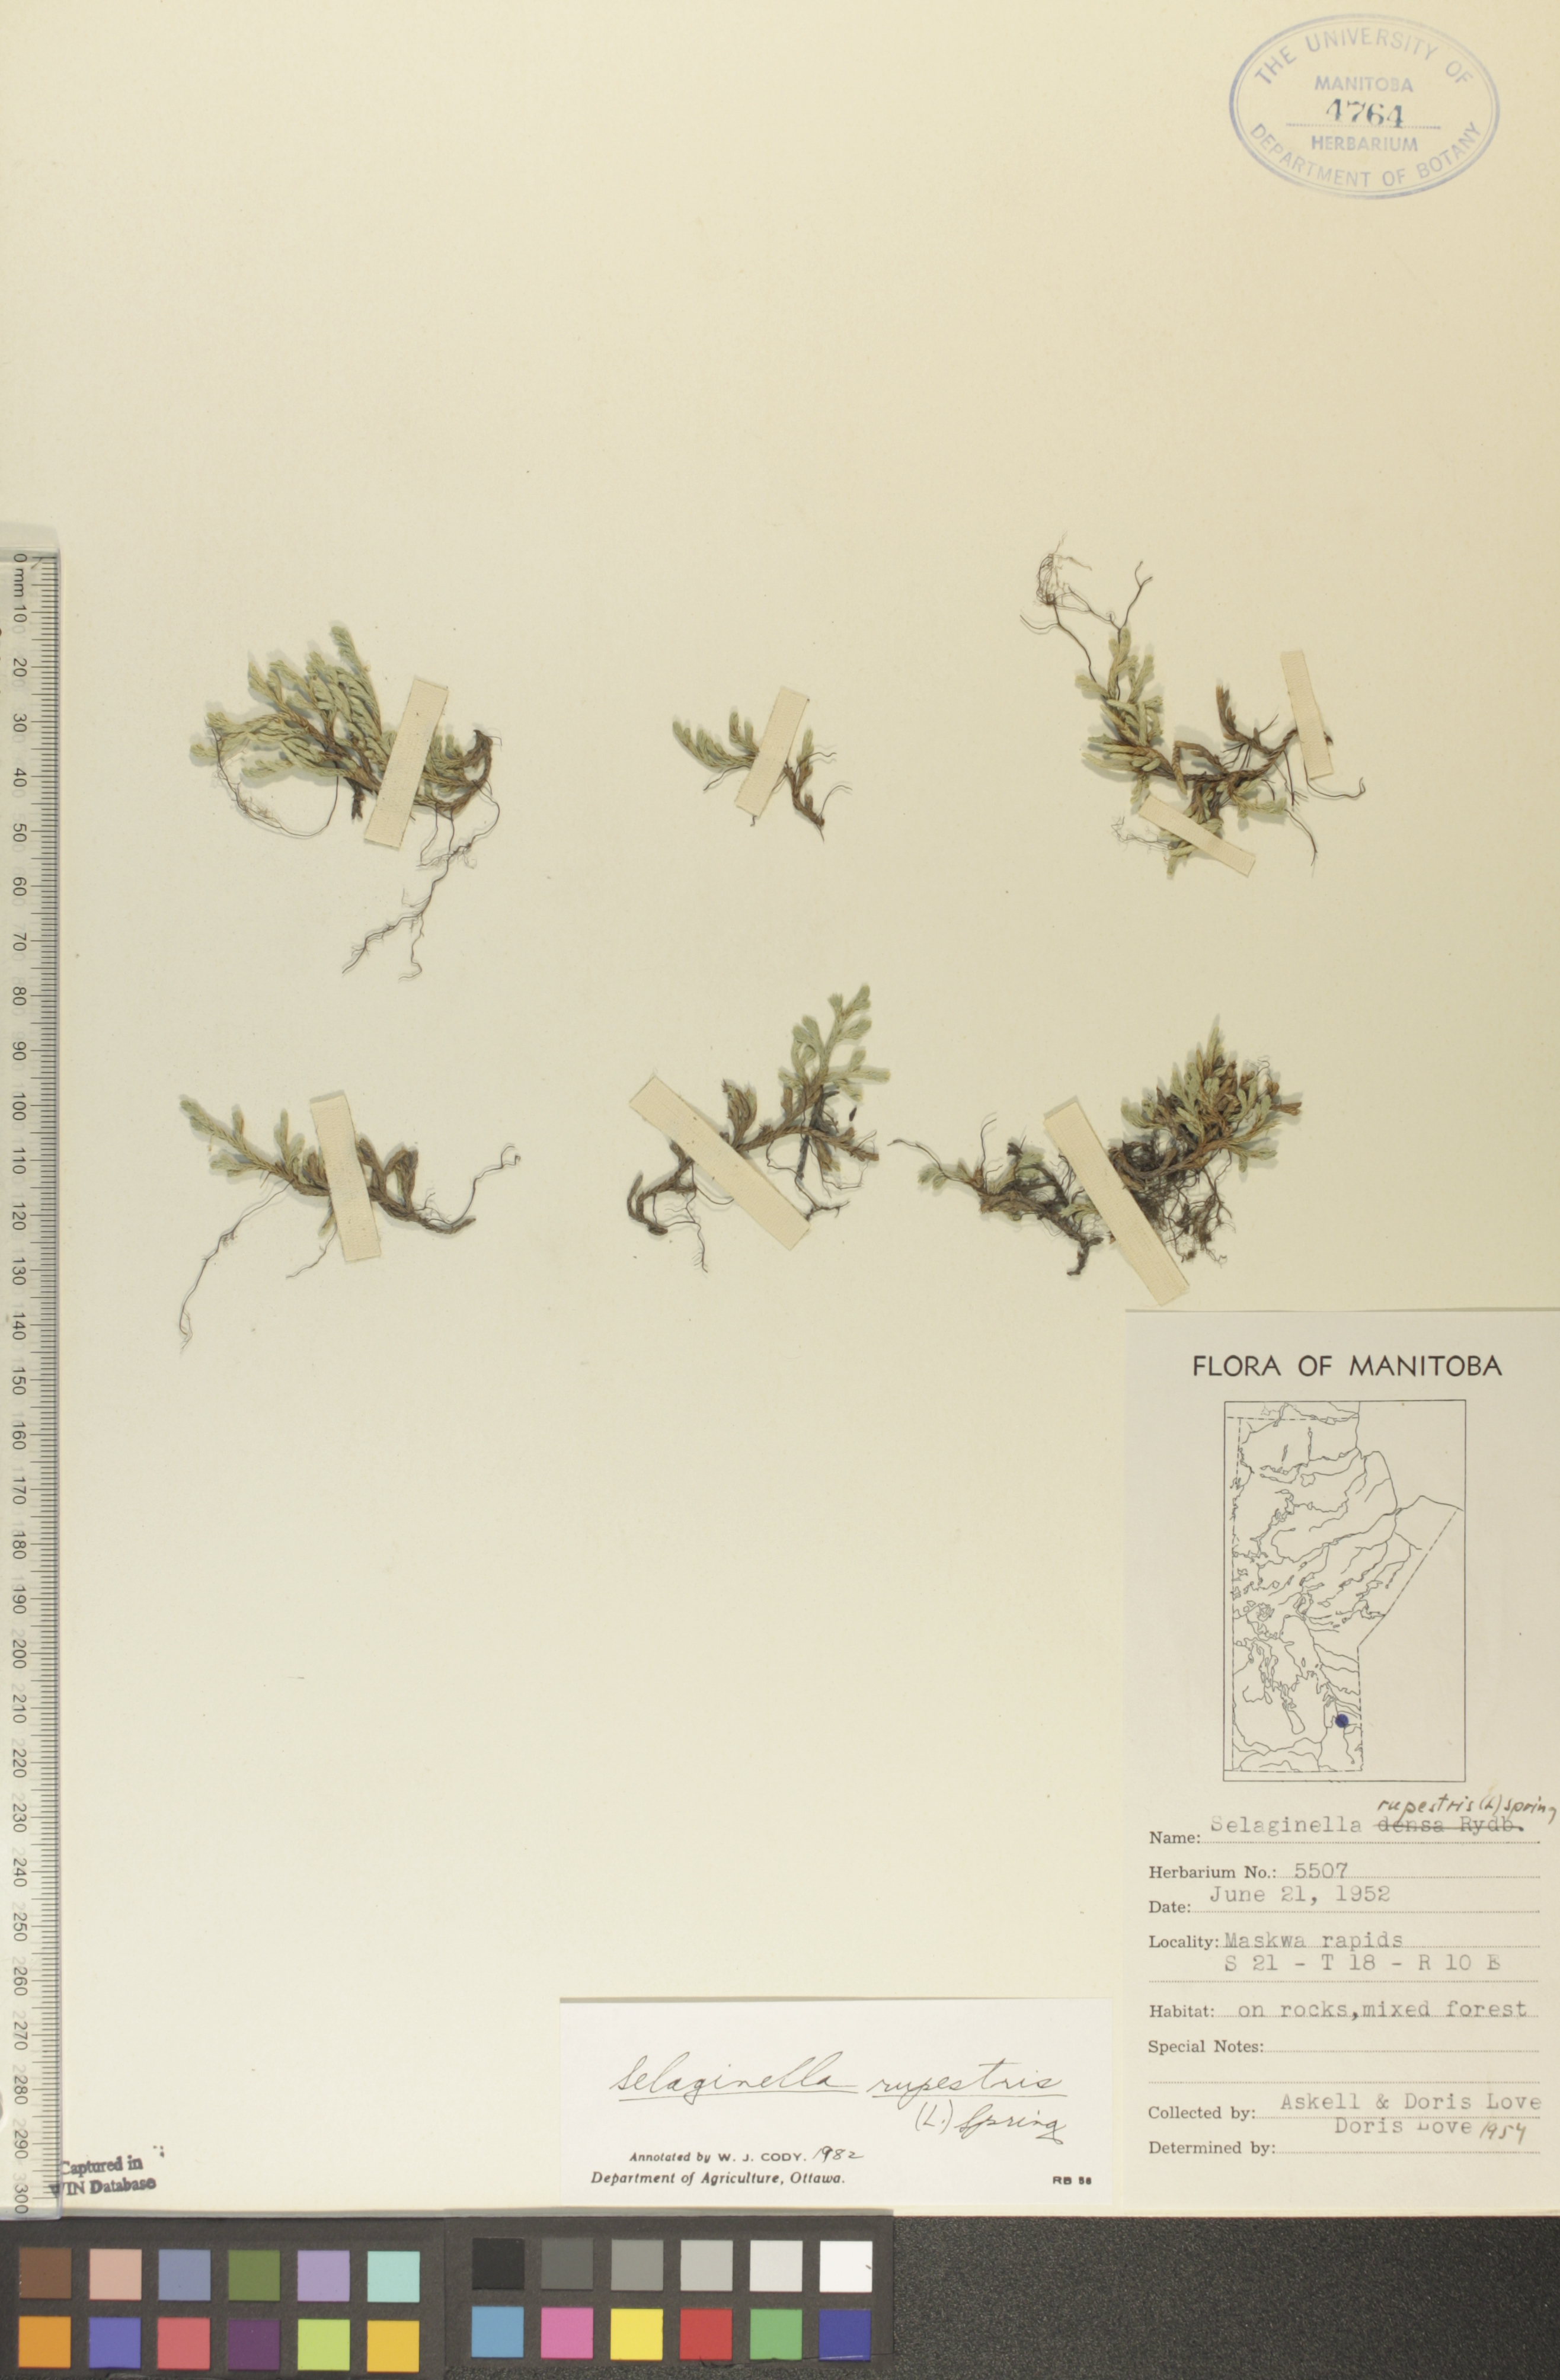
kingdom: Plantae
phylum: Tracheophyta
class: Lycopodiopsida
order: Selaginellales
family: Selaginellaceae
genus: Selaginella
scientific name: Selaginella rupestris
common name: Dwarf spikemoss
